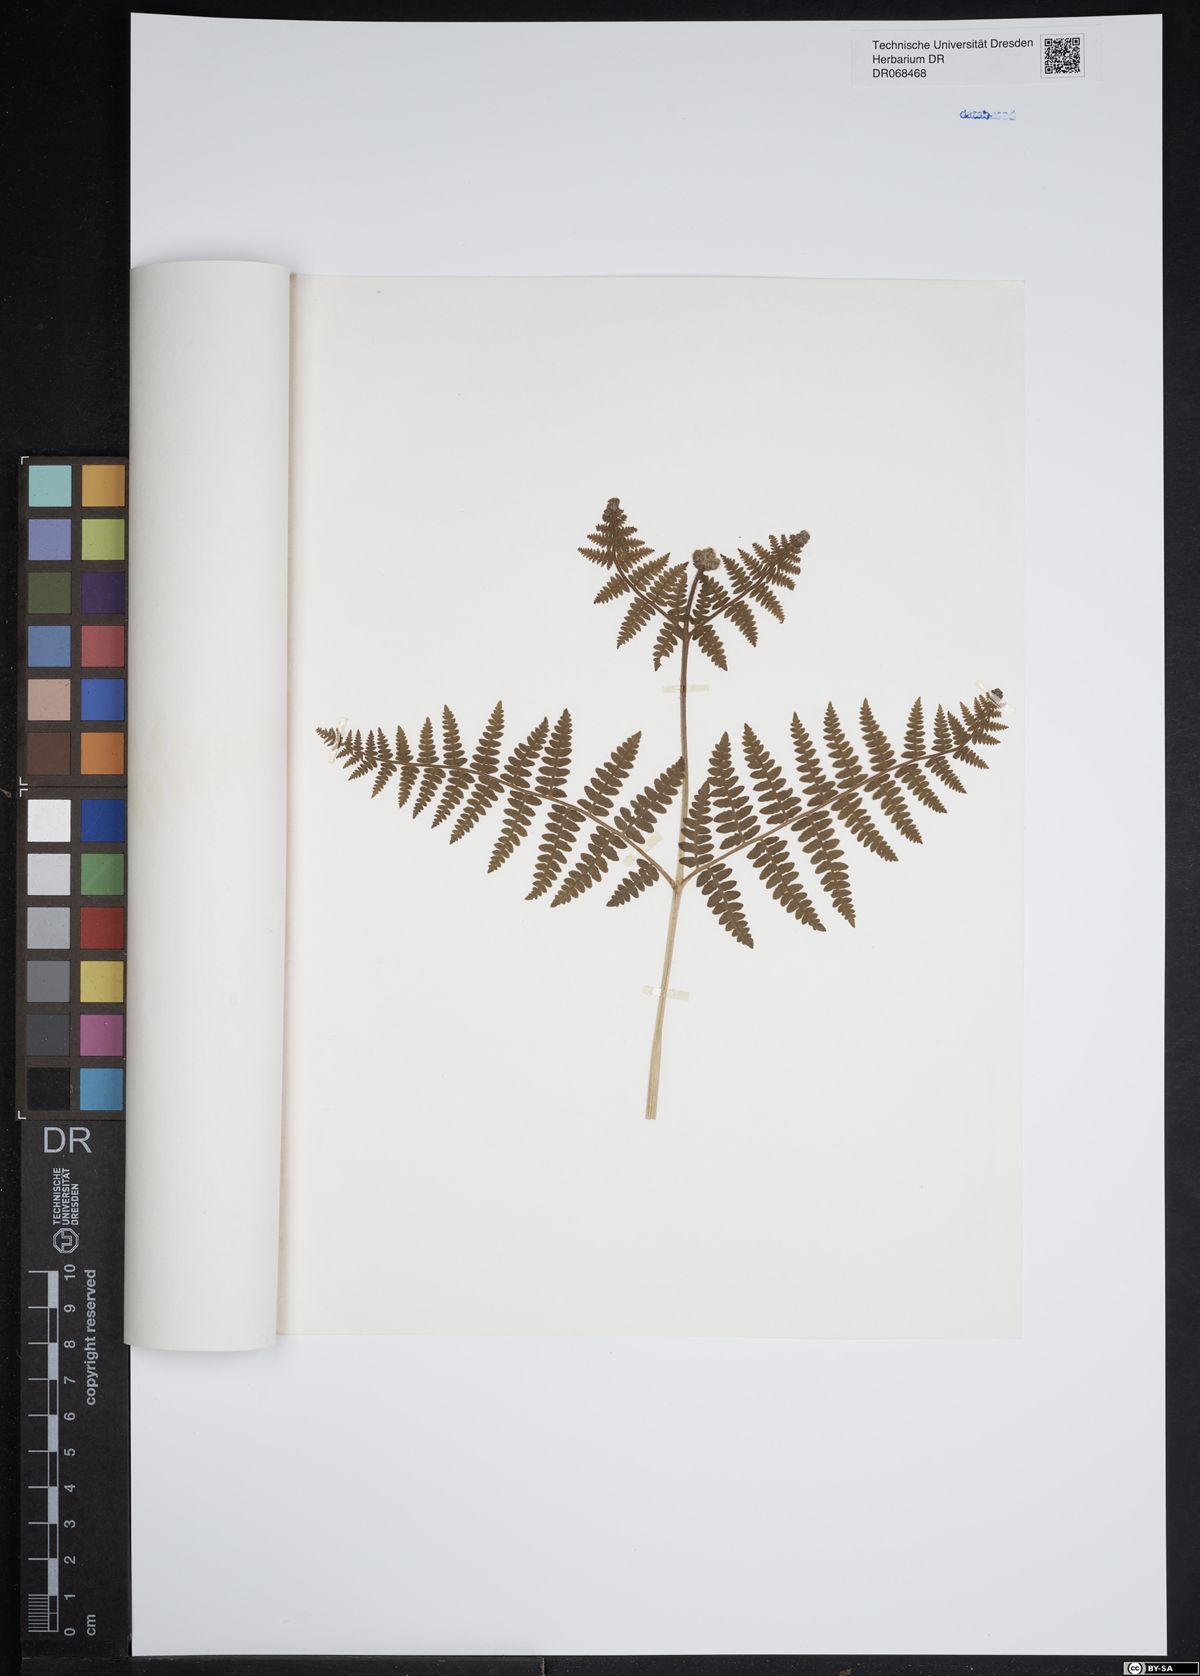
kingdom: Plantae
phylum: Tracheophyta
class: Polypodiopsida
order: Polypodiales
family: Dennstaedtiaceae
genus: Pteridium
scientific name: Pteridium aquilinum
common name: Bracken
